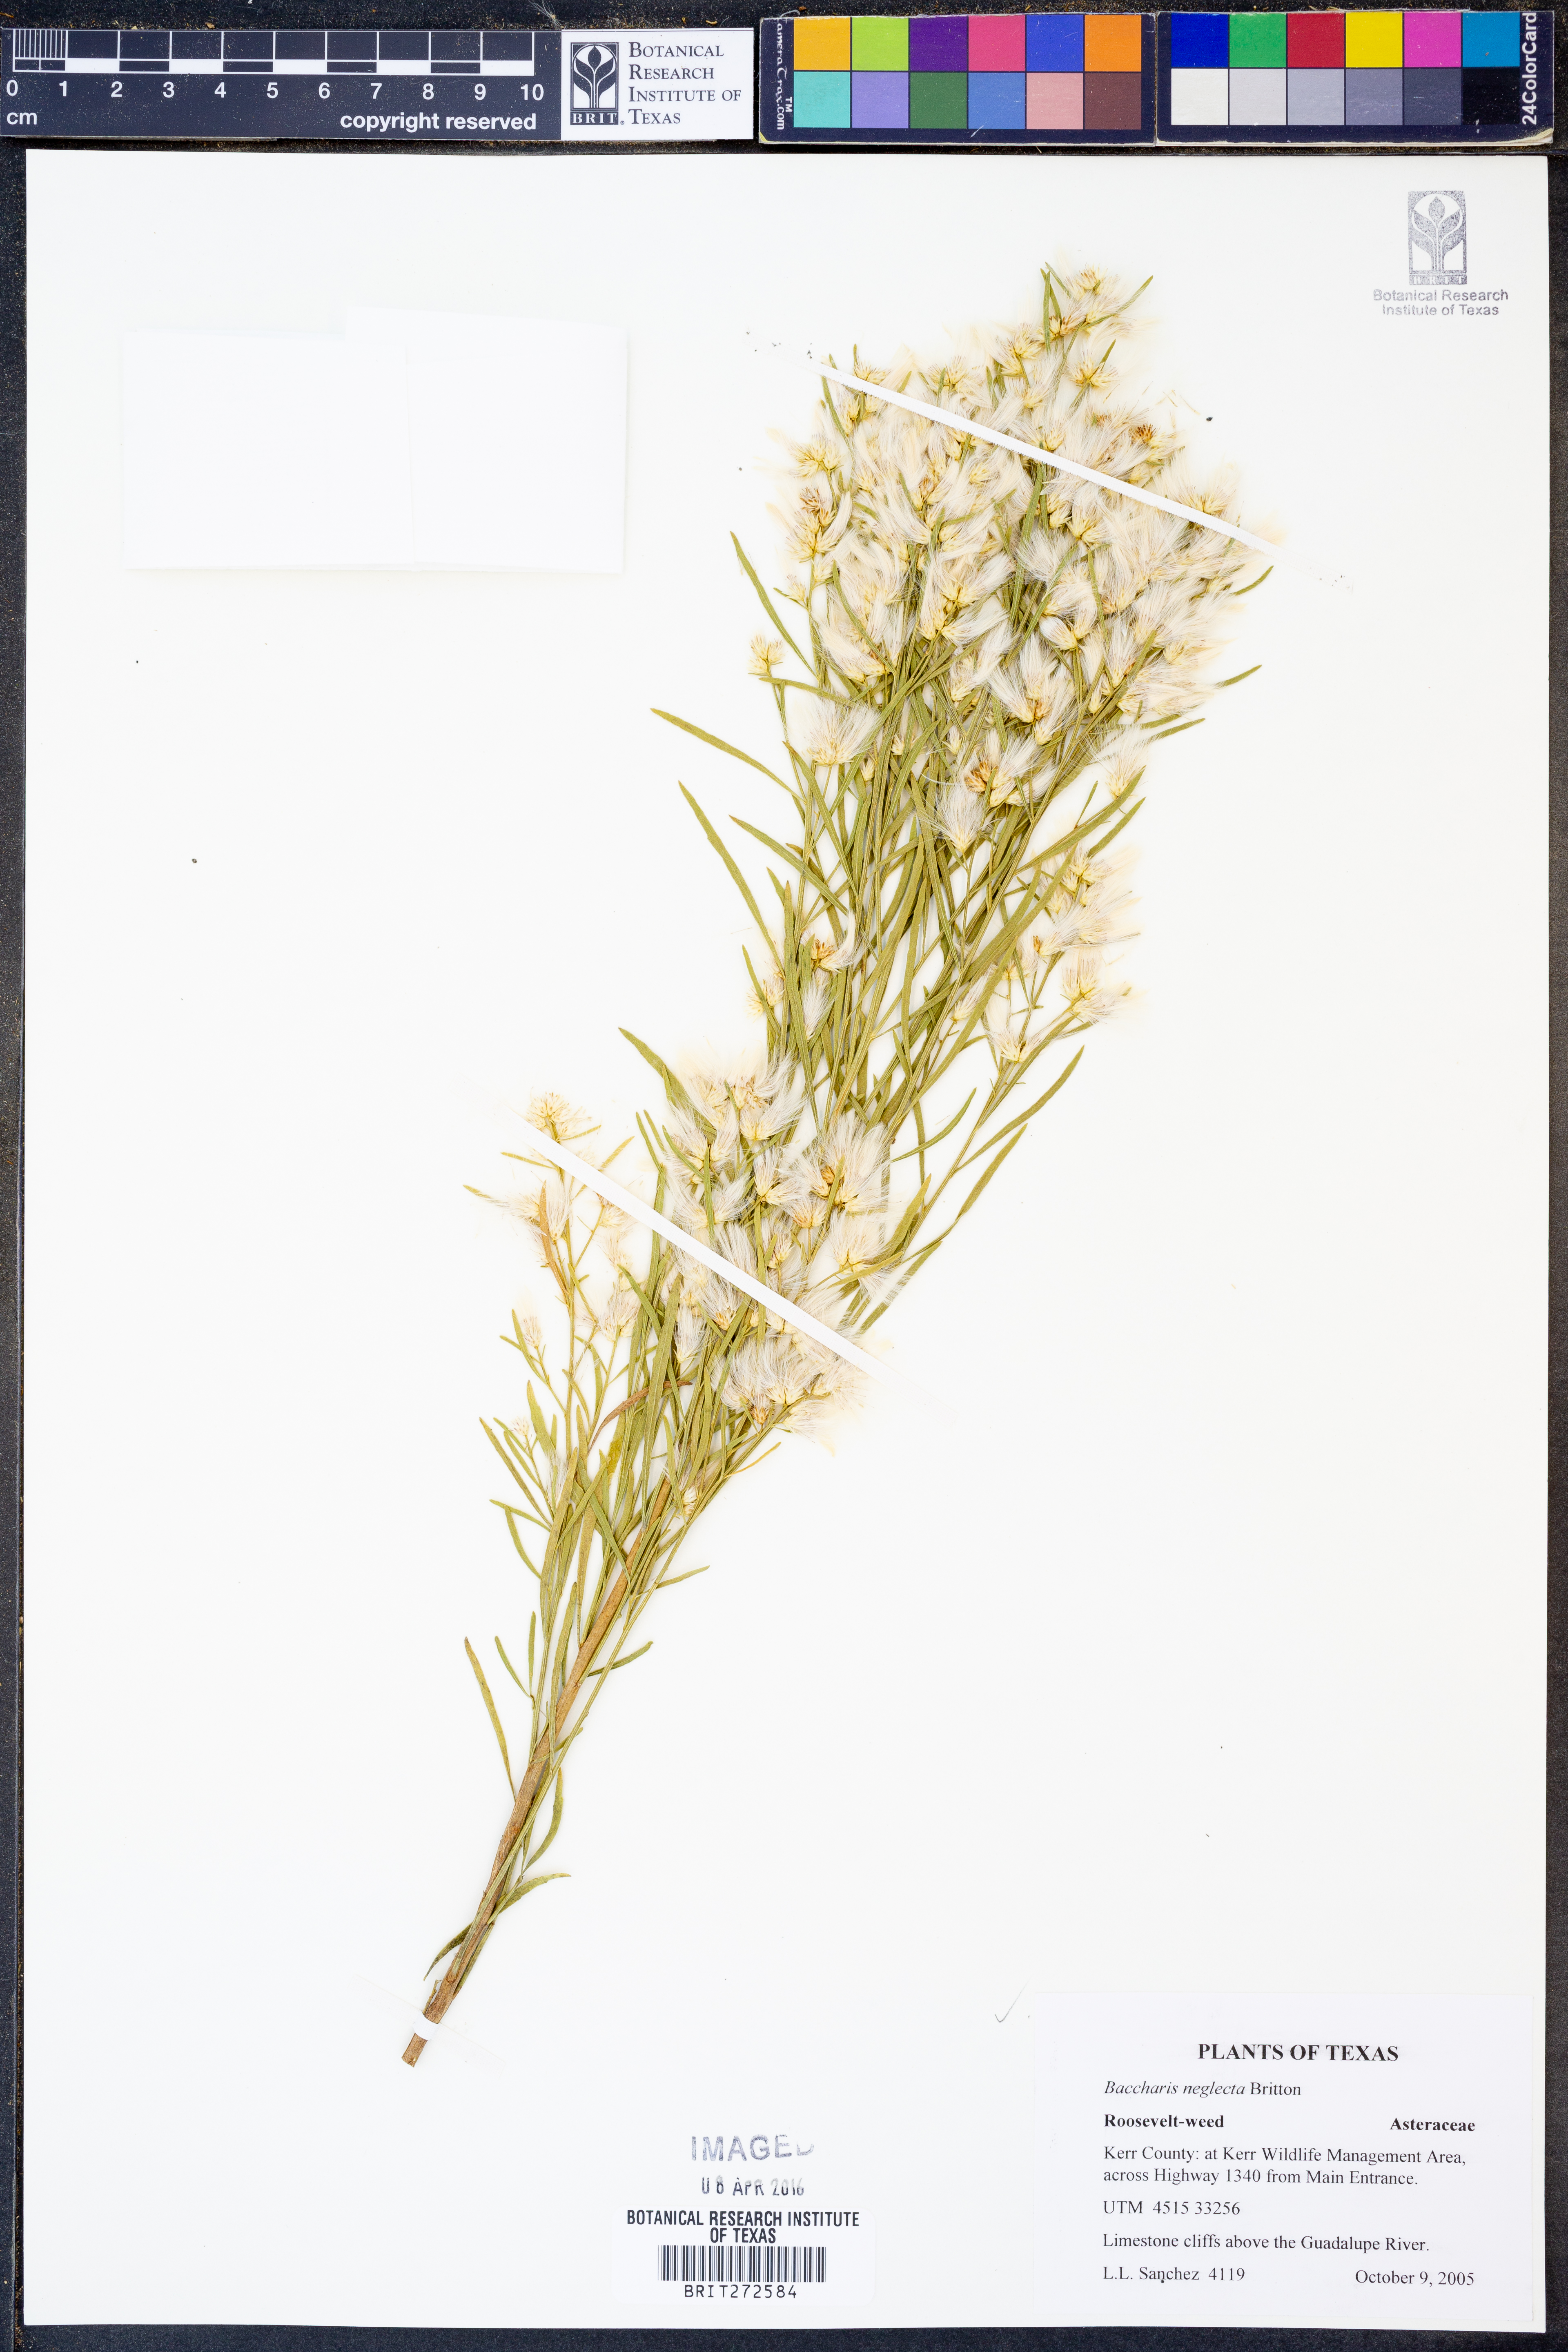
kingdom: Plantae
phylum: Tracheophyta
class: Magnoliopsida
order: Asterales
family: Asteraceae
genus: Baccharis
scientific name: Baccharis neglecta
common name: Roosevelt-weed
